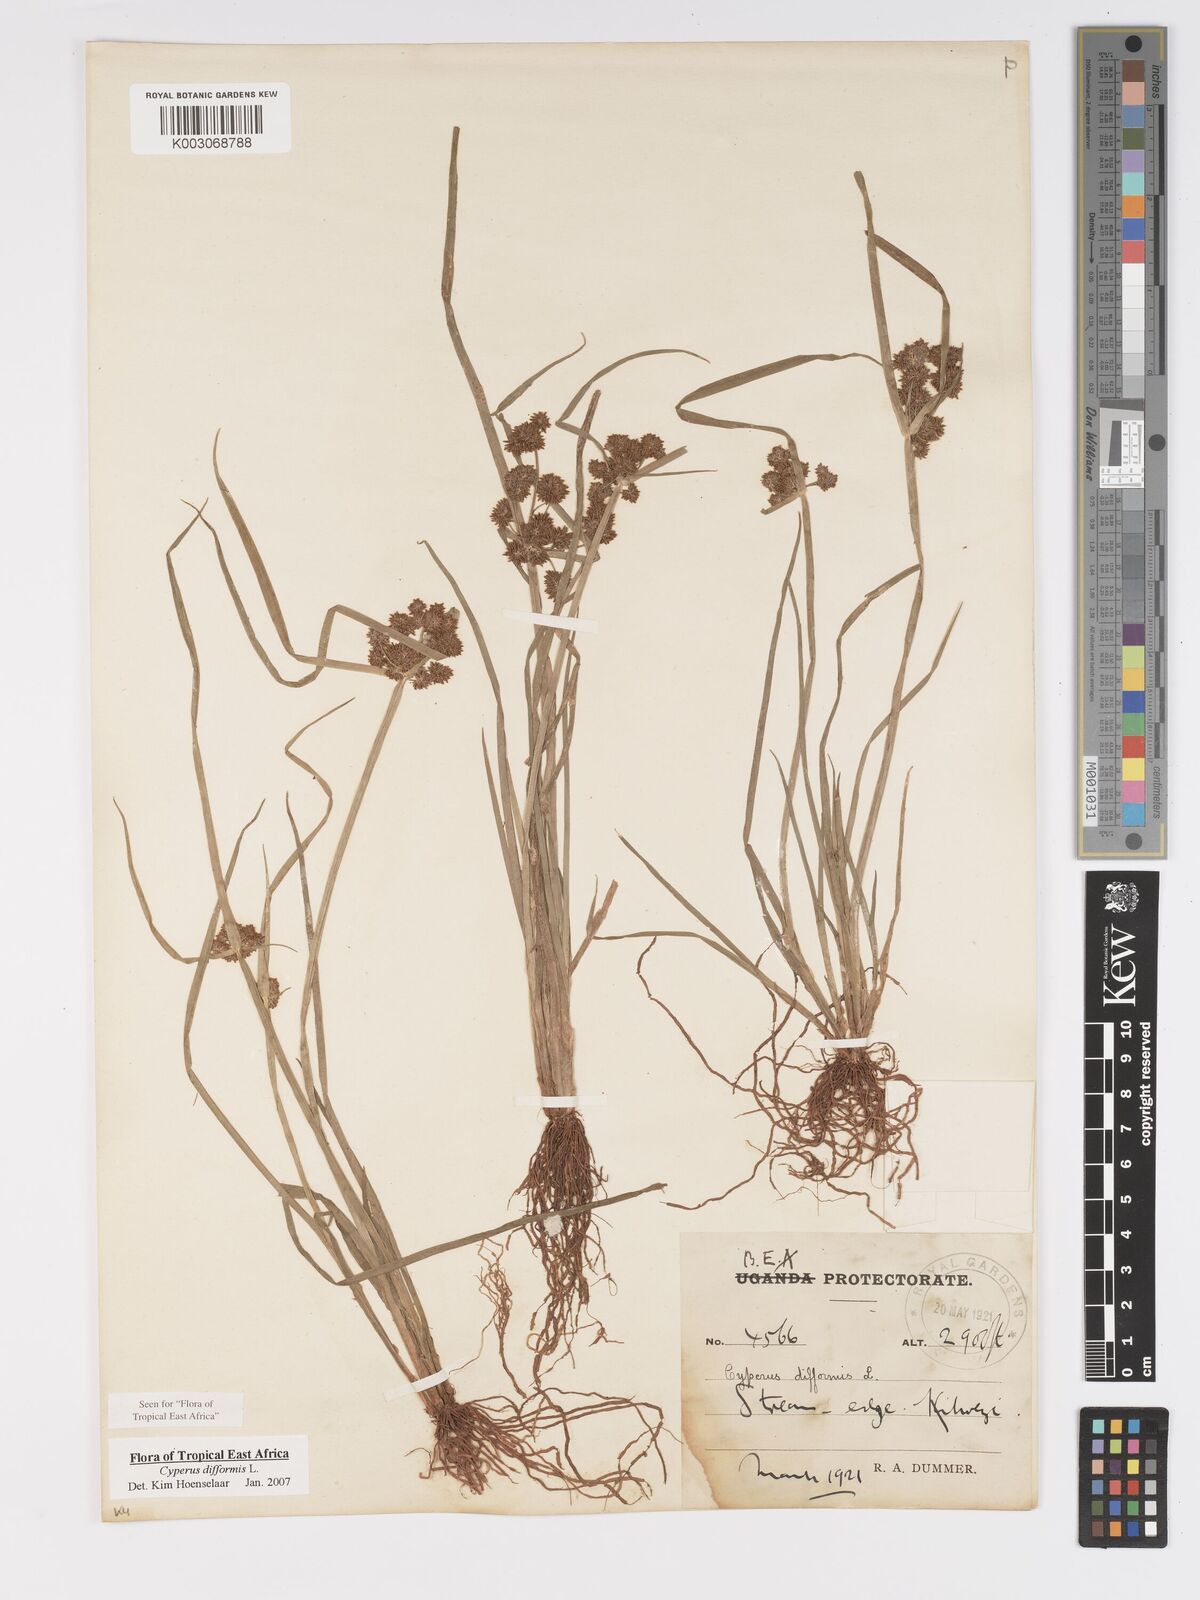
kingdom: Plantae
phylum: Tracheophyta
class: Liliopsida
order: Poales
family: Cyperaceae
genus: Cyperus
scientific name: Cyperus difformis
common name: Variable flatsedge
